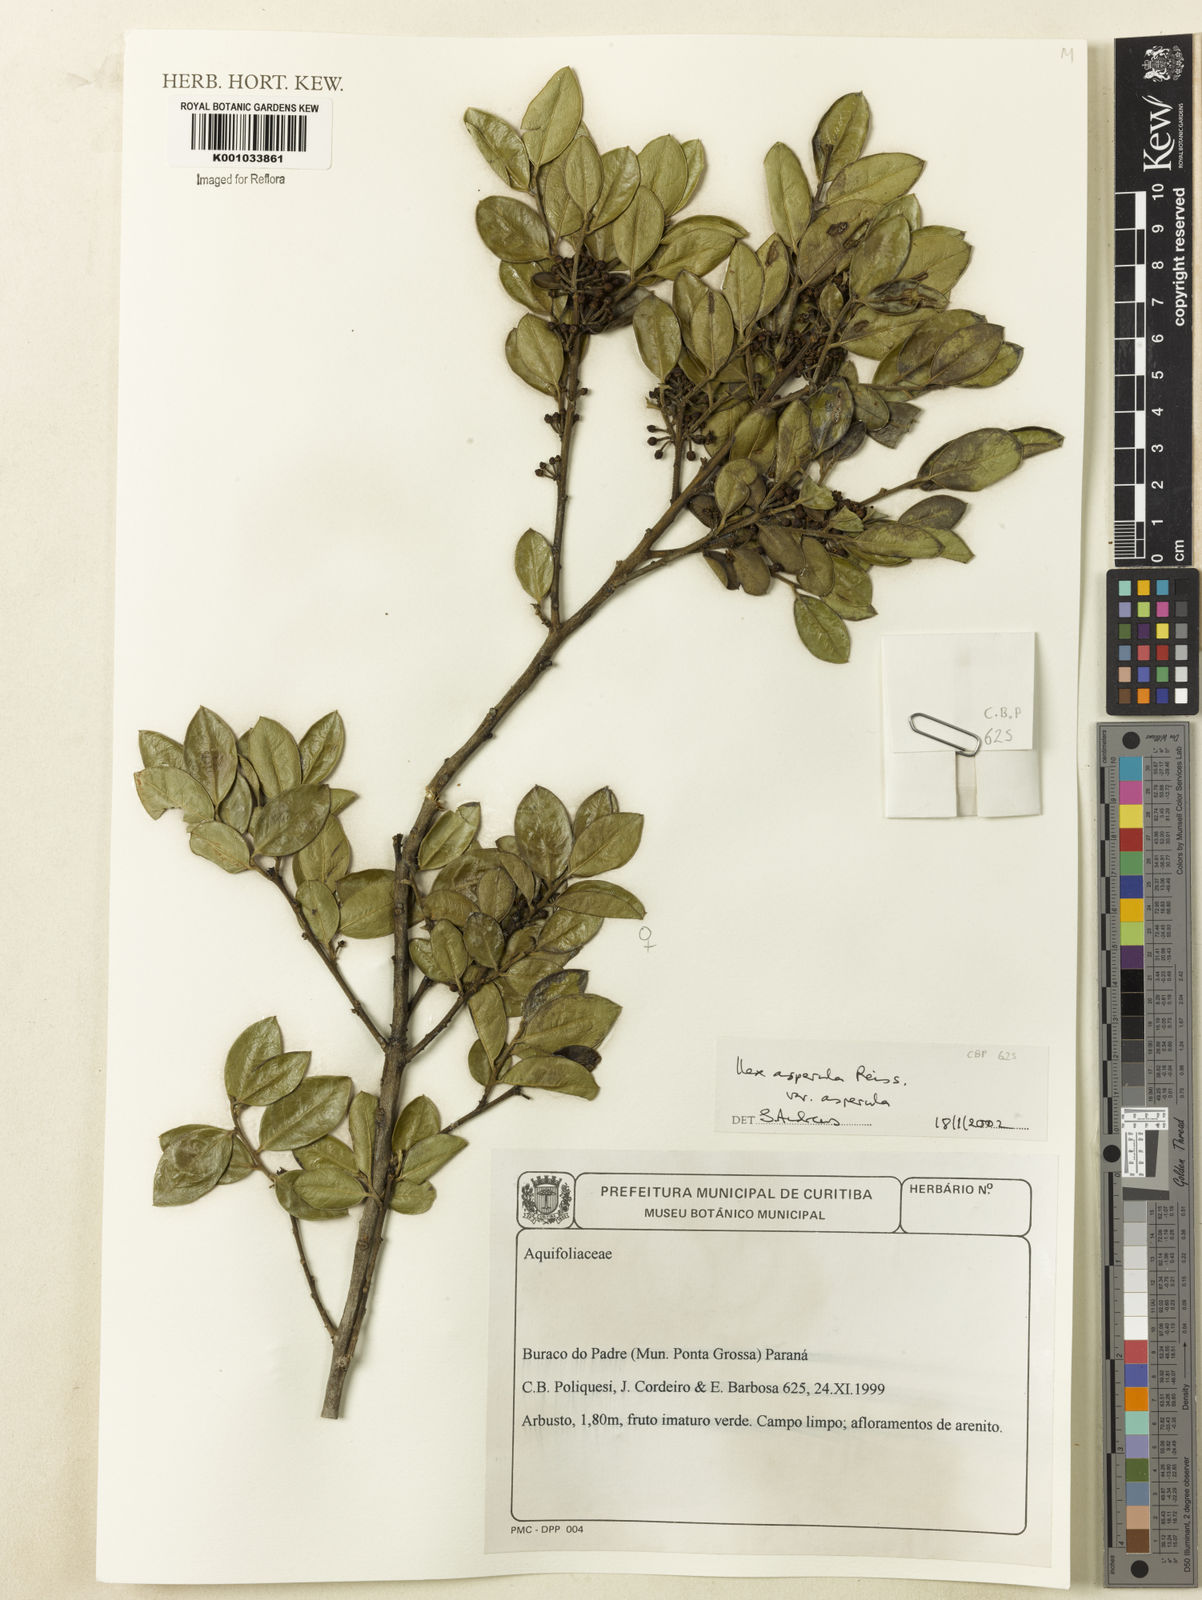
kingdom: Plantae
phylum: Tracheophyta
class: Magnoliopsida
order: Aquifoliales
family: Aquifoliaceae
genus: Ilex
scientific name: Ilex
